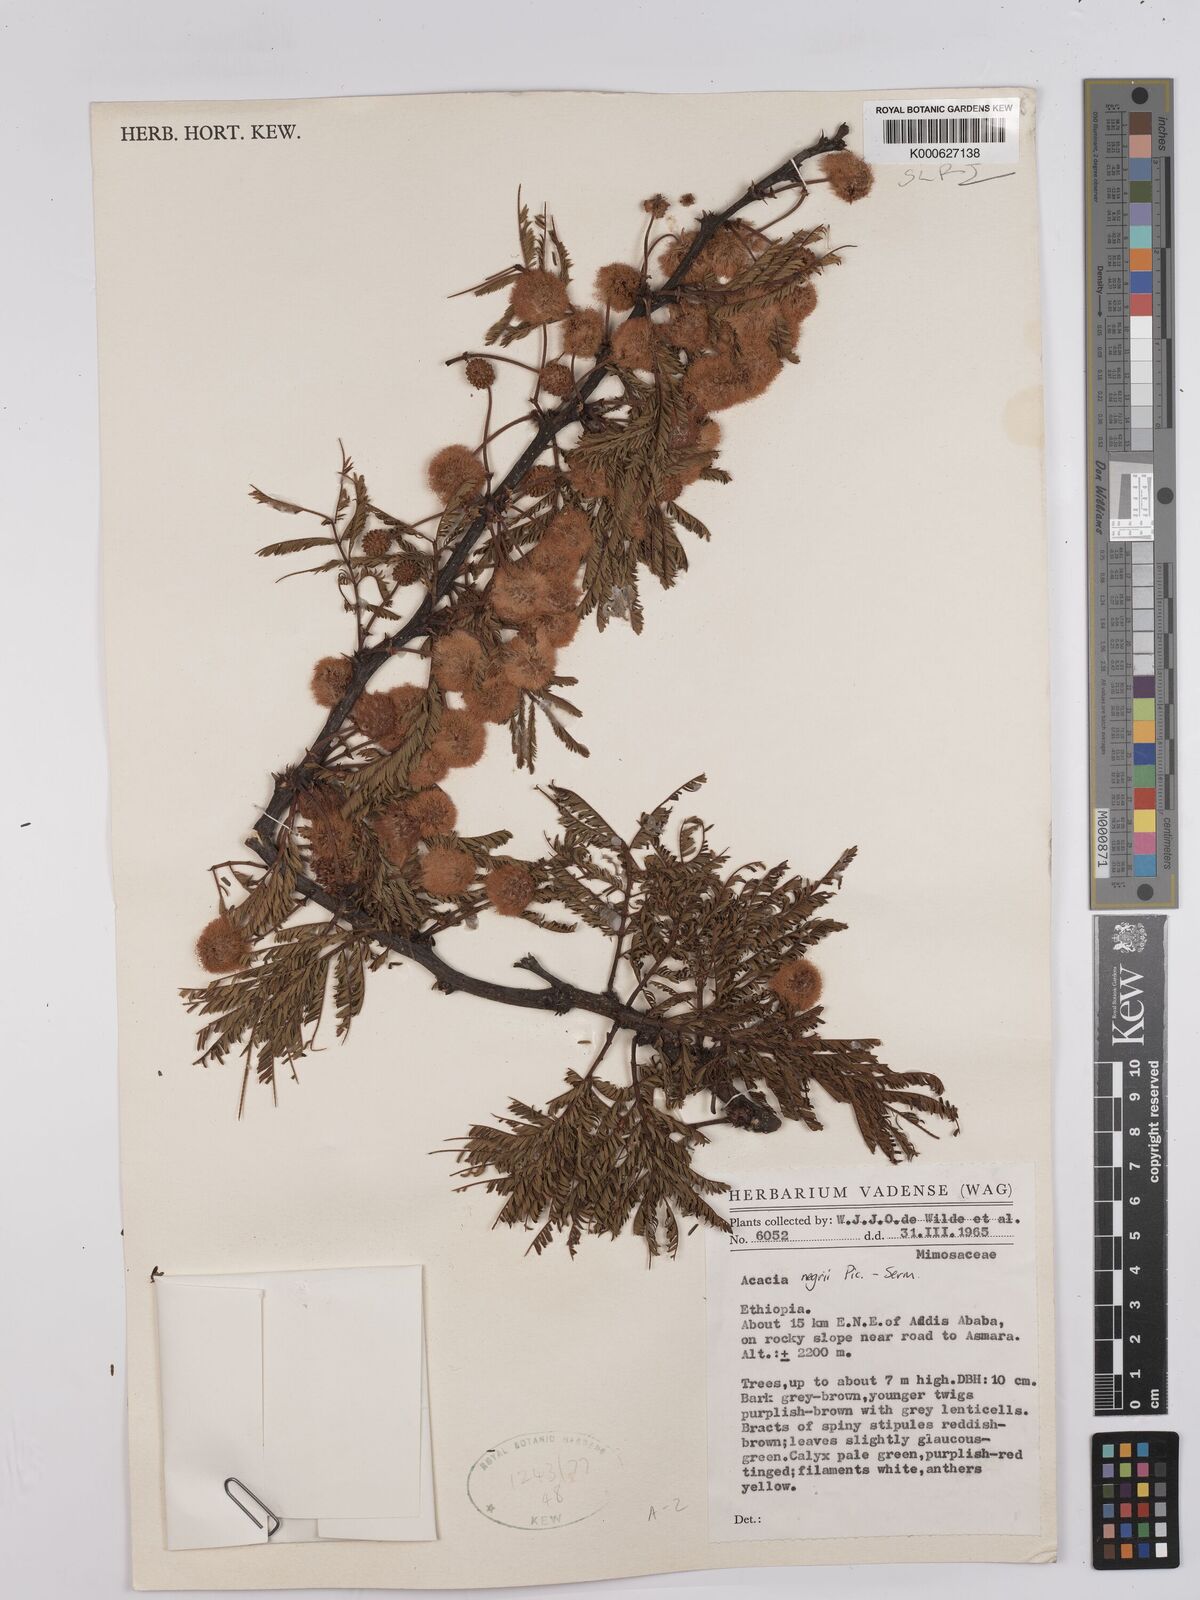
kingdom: Plantae
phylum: Tracheophyta
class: Magnoliopsida
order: Fabales
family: Fabaceae
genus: Vachellia
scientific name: Vachellia negrii
